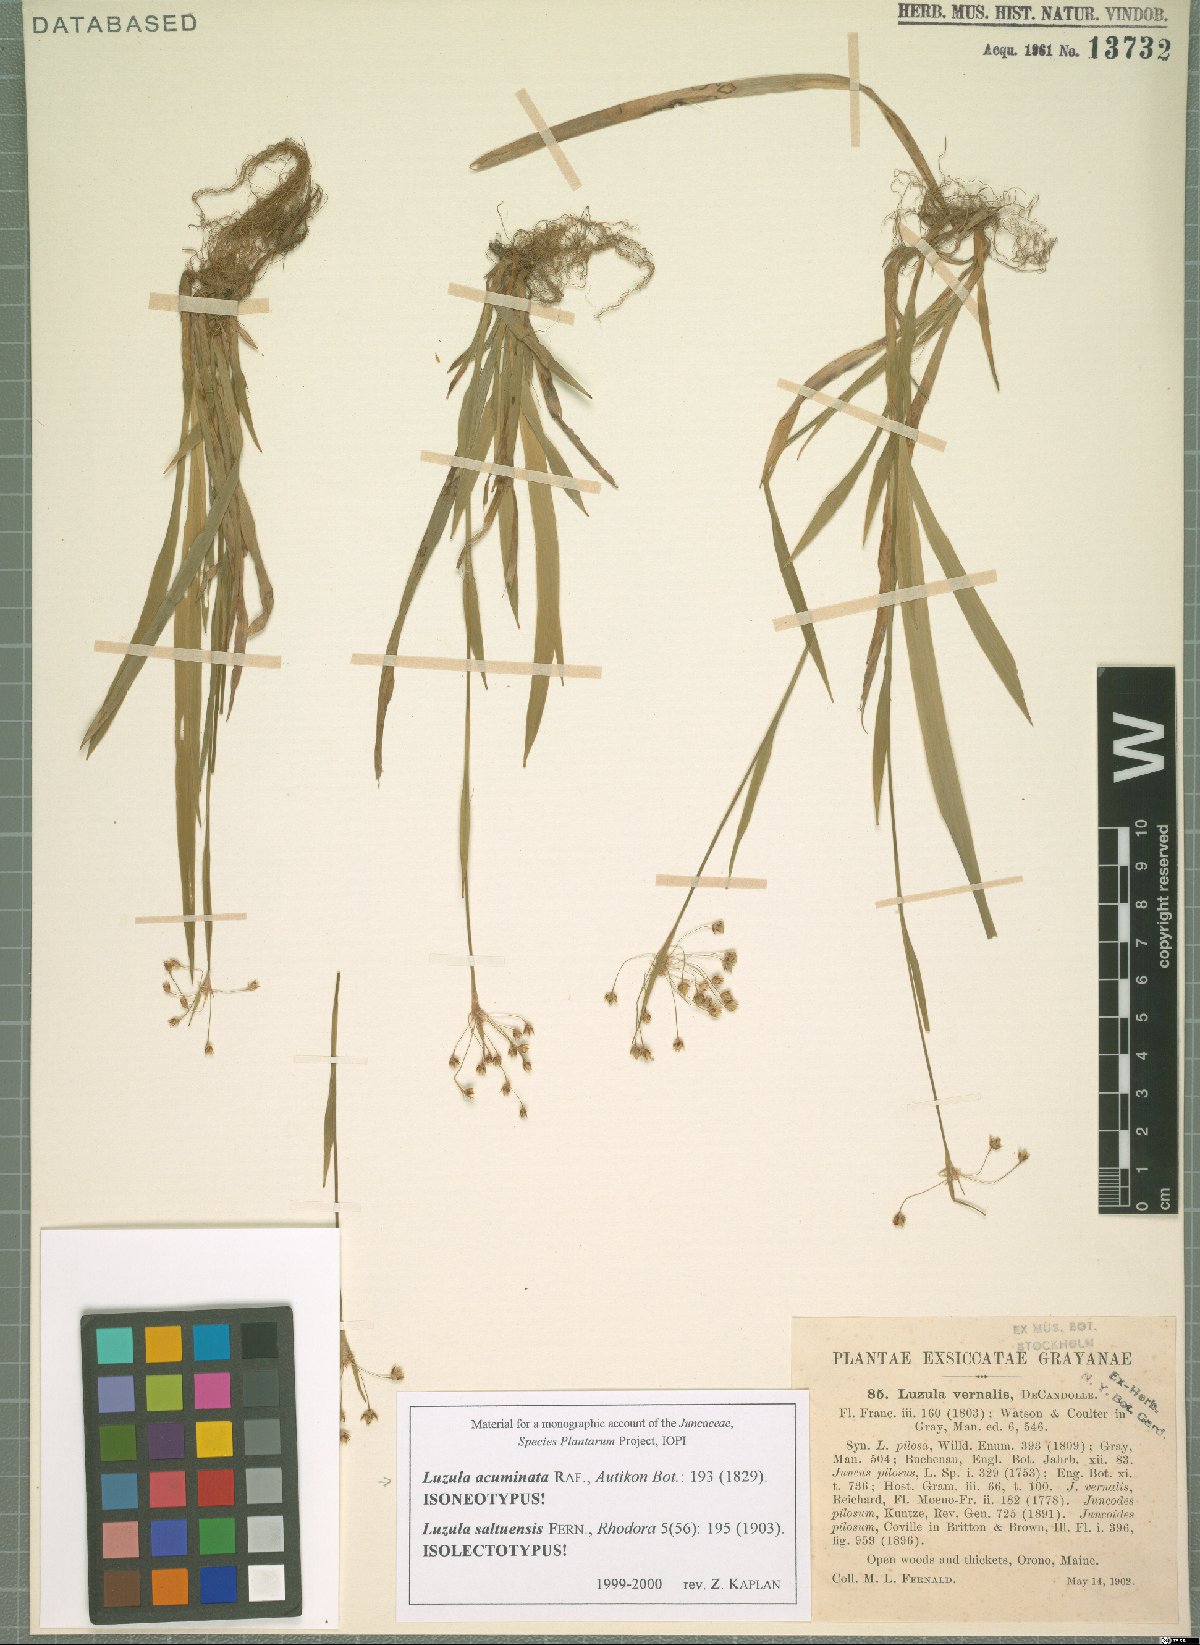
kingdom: Plantae
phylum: Tracheophyta
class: Liliopsida
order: Poales
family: Juncaceae
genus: Luzula
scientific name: Luzula acuminata
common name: Hairy woodrush
